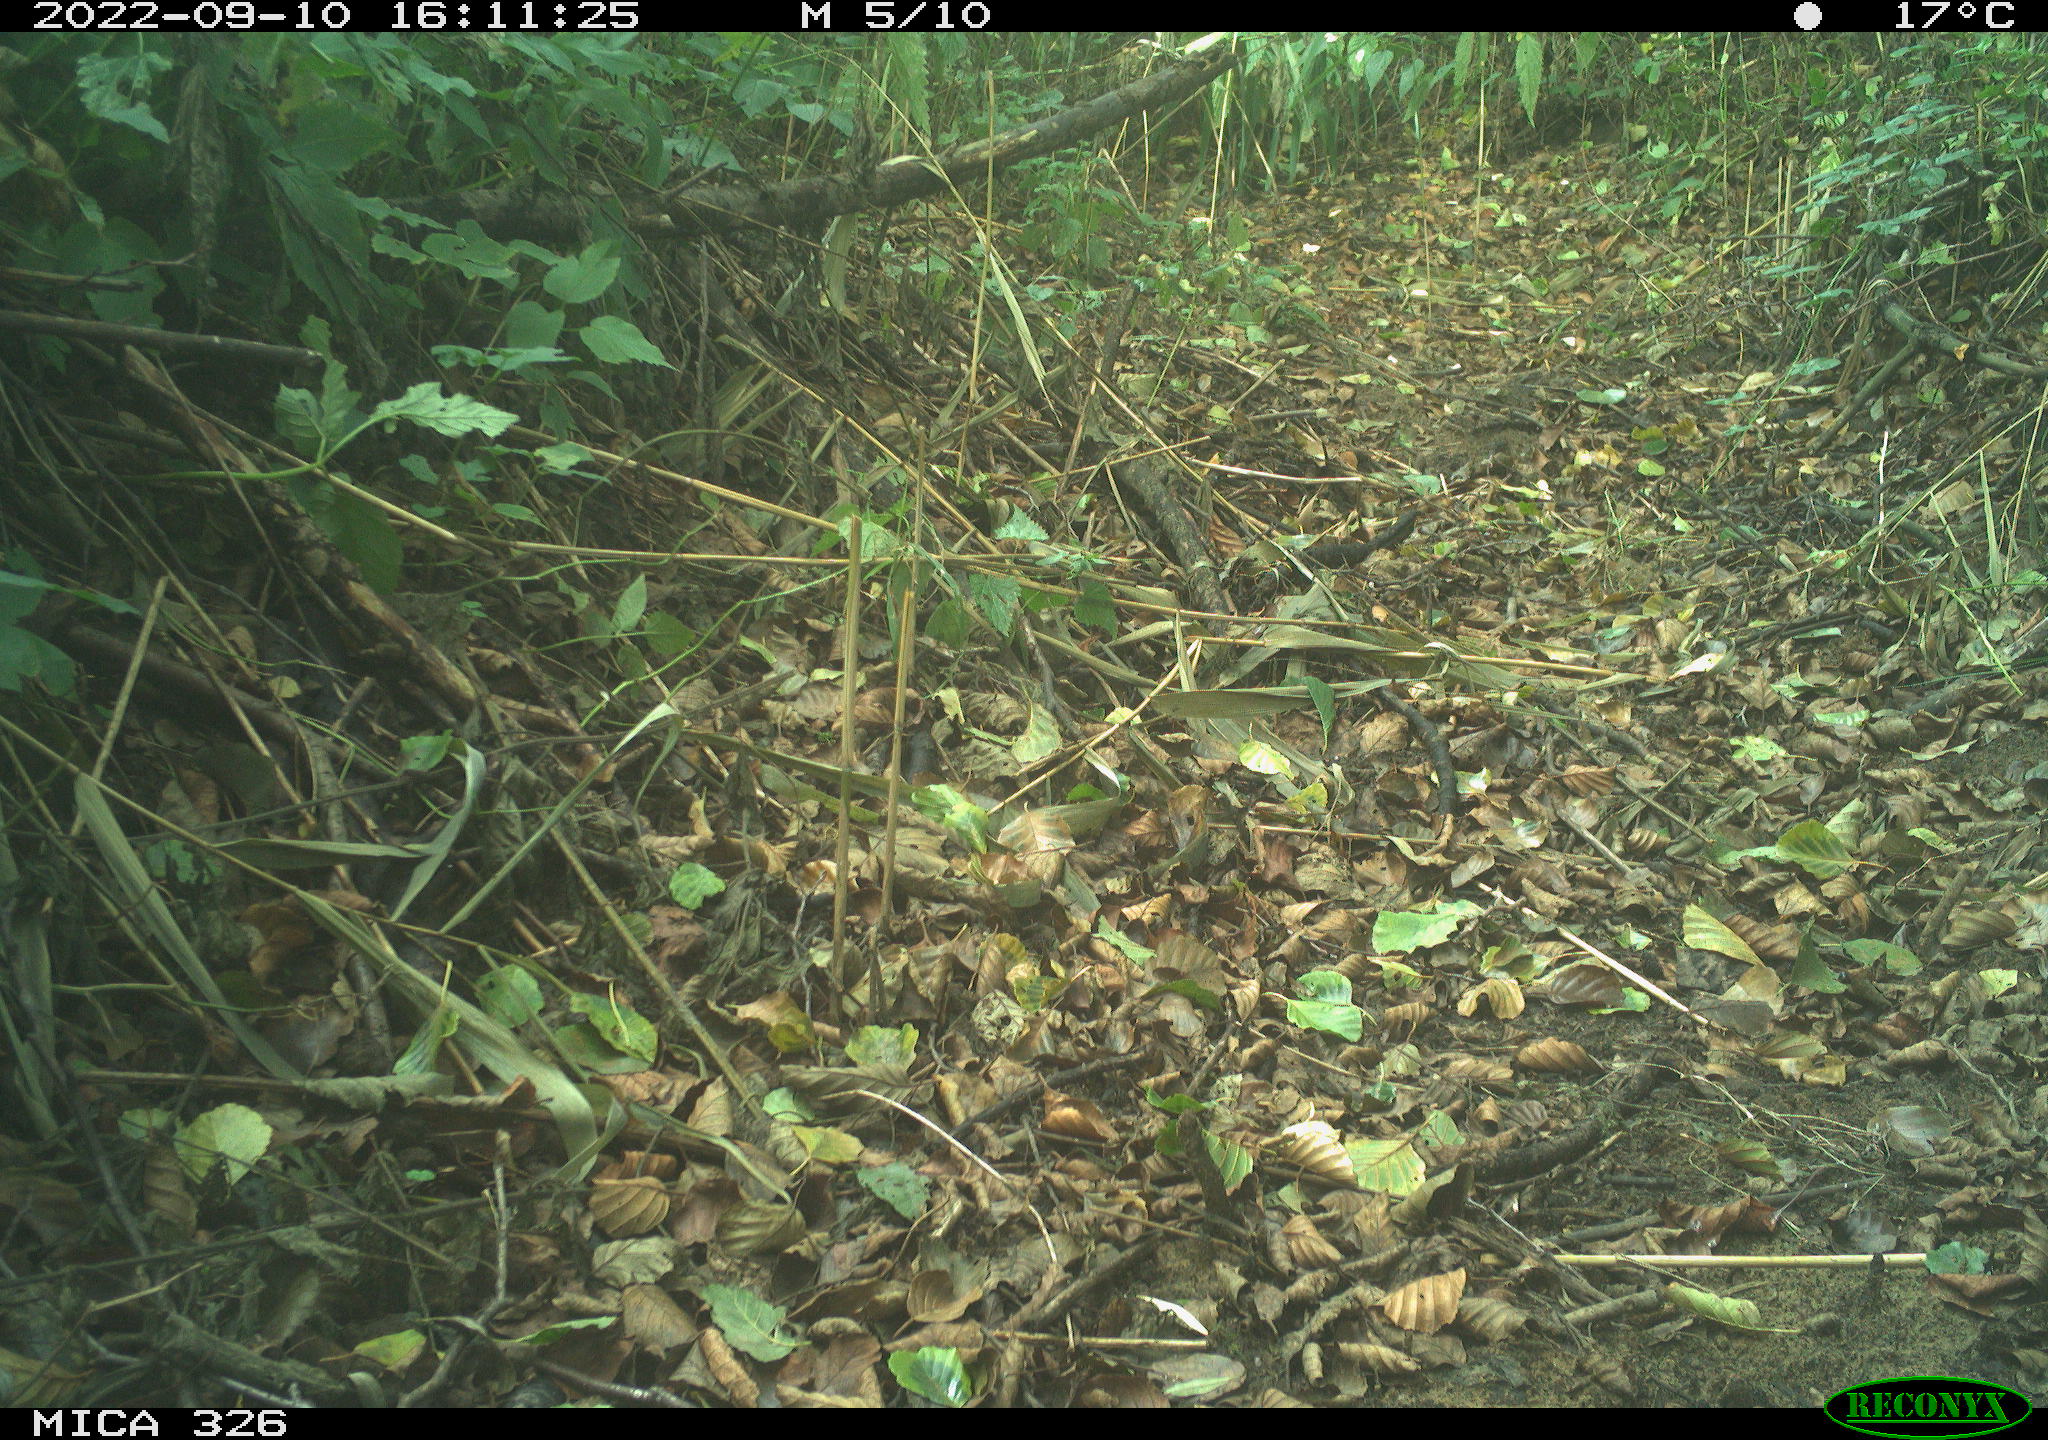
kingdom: Animalia
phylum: Chordata
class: Aves
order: Galliformes
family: Phasianidae
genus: Phasianus
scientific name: Phasianus colchicus
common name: Common pheasant
